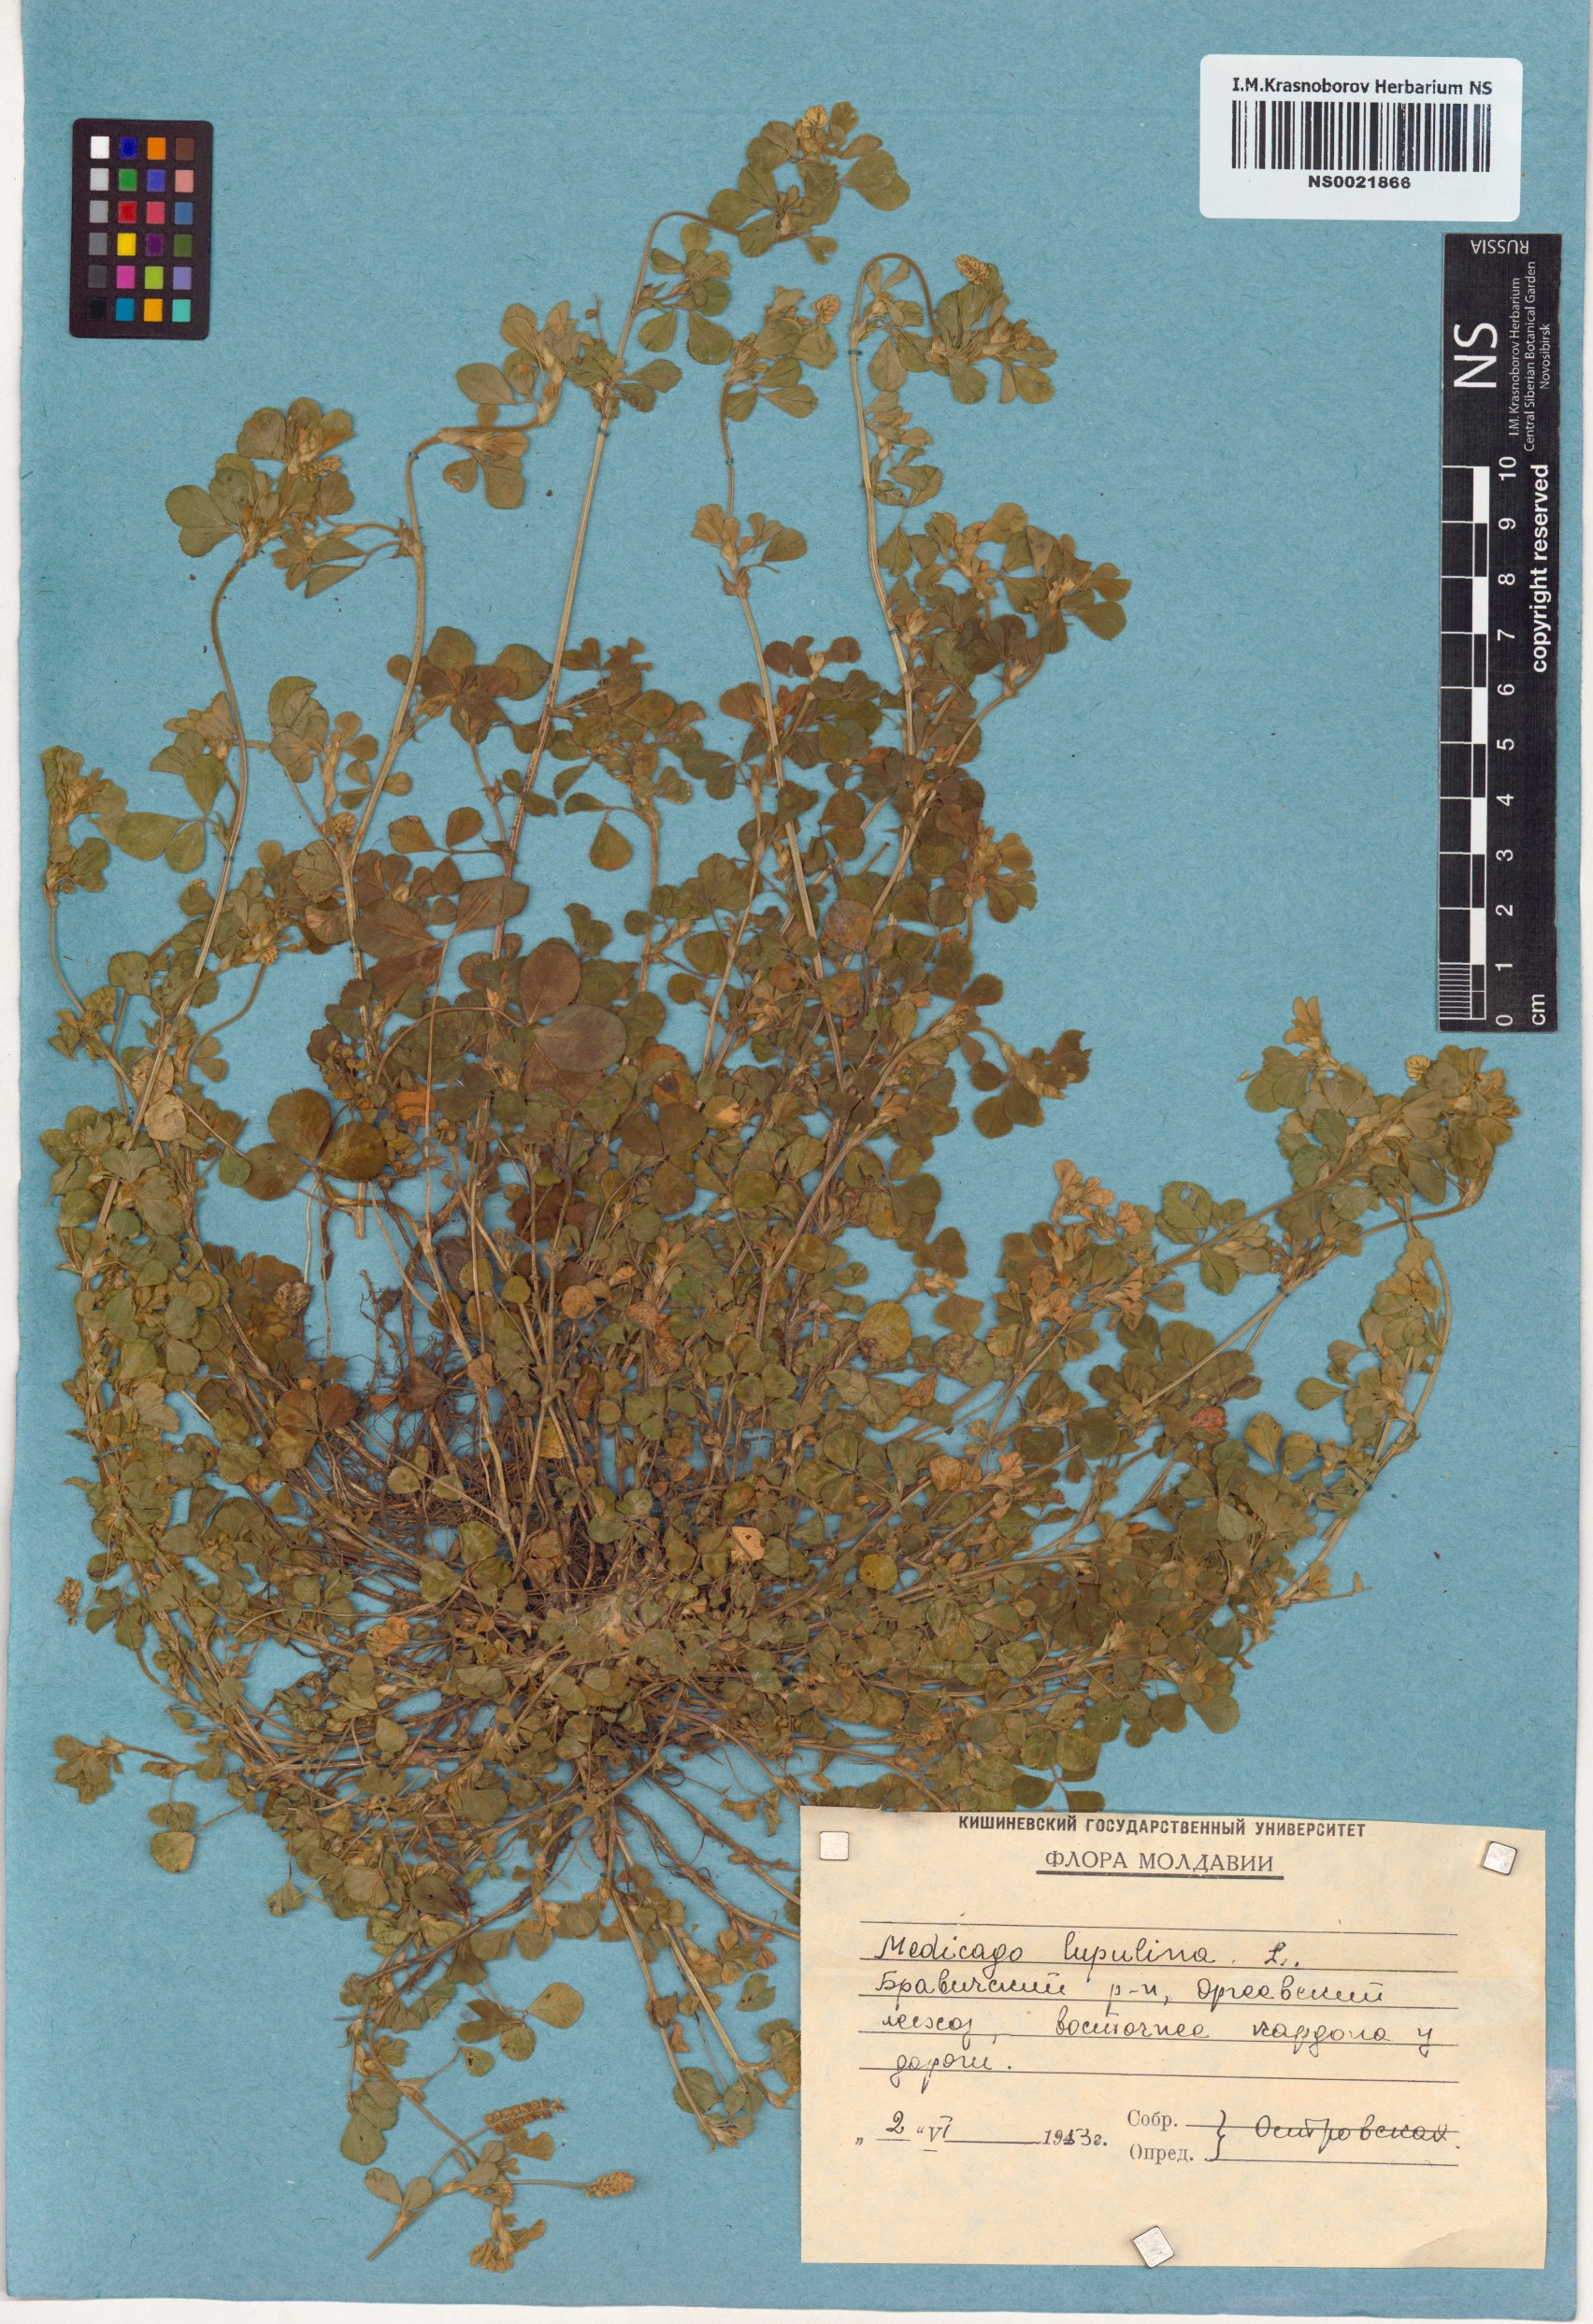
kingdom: Plantae
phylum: Tracheophyta
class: Magnoliopsida
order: Fabales
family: Fabaceae
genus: Medicago
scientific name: Medicago lupulina
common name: Black medick
